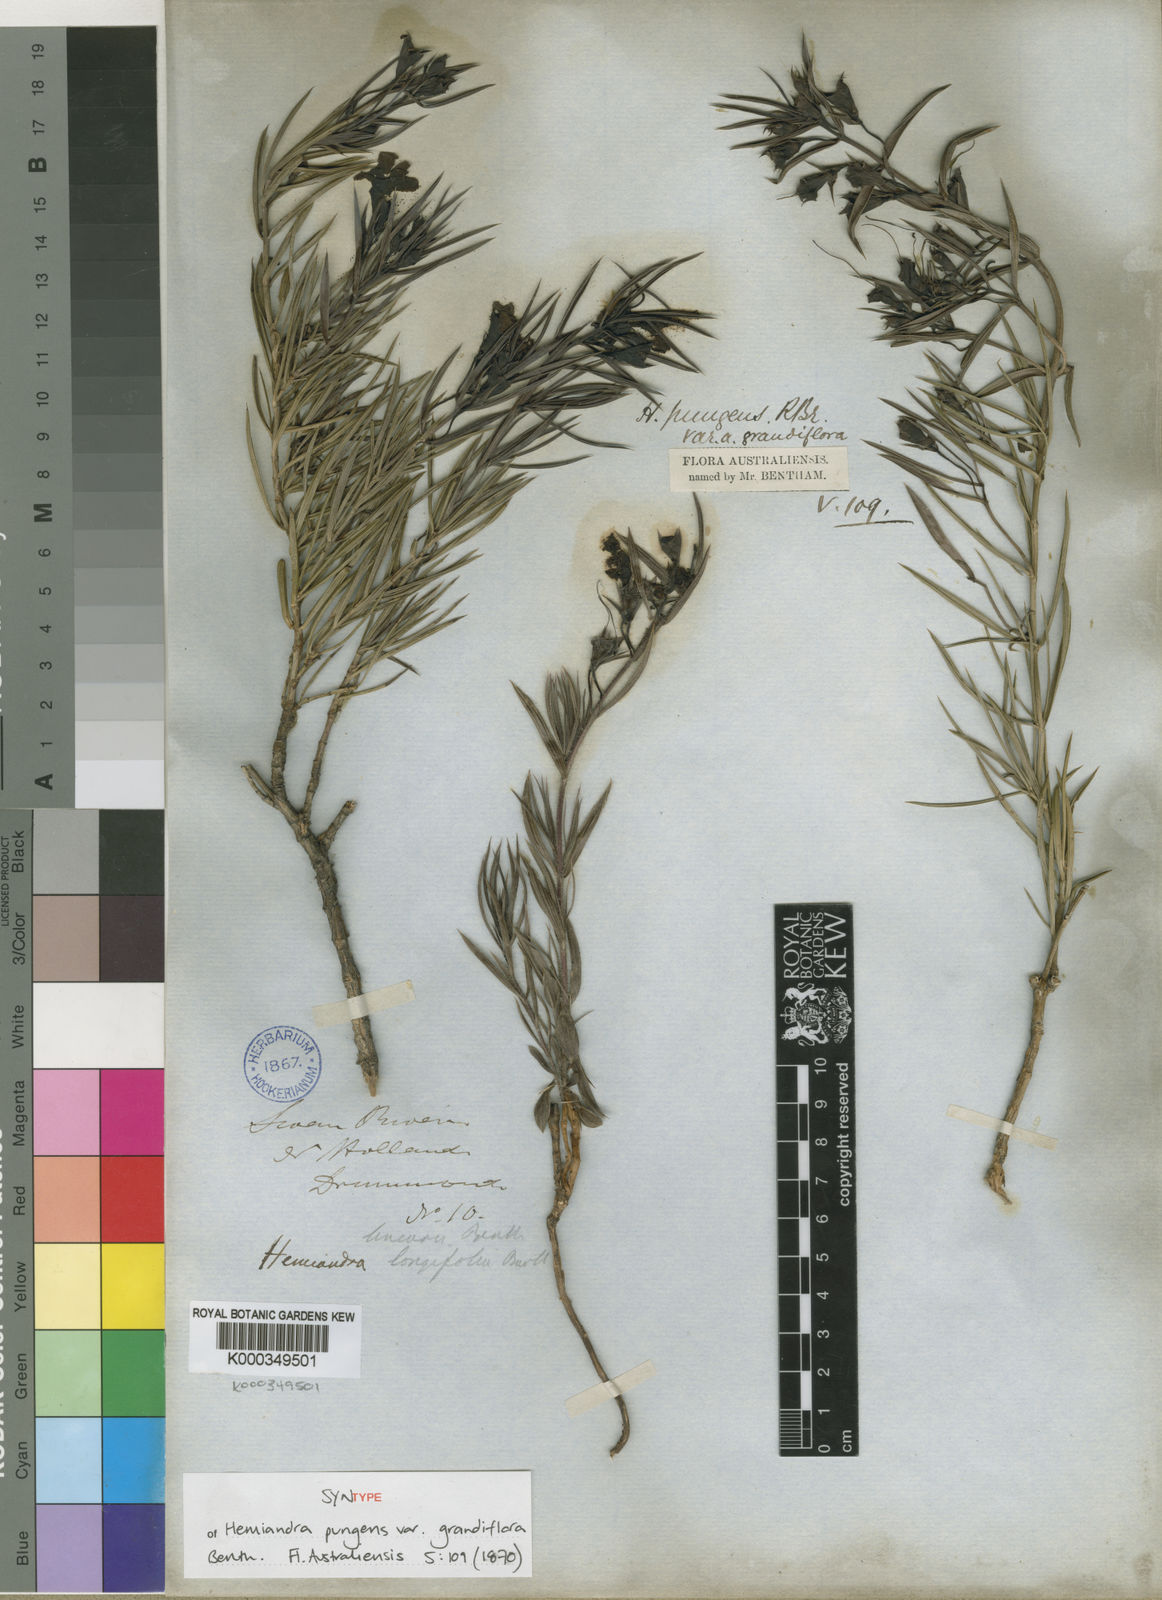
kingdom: Plantae
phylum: Tracheophyta
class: Magnoliopsida
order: Lamiales
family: Lamiaceae
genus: Hemiandra
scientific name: Hemiandra pungens
